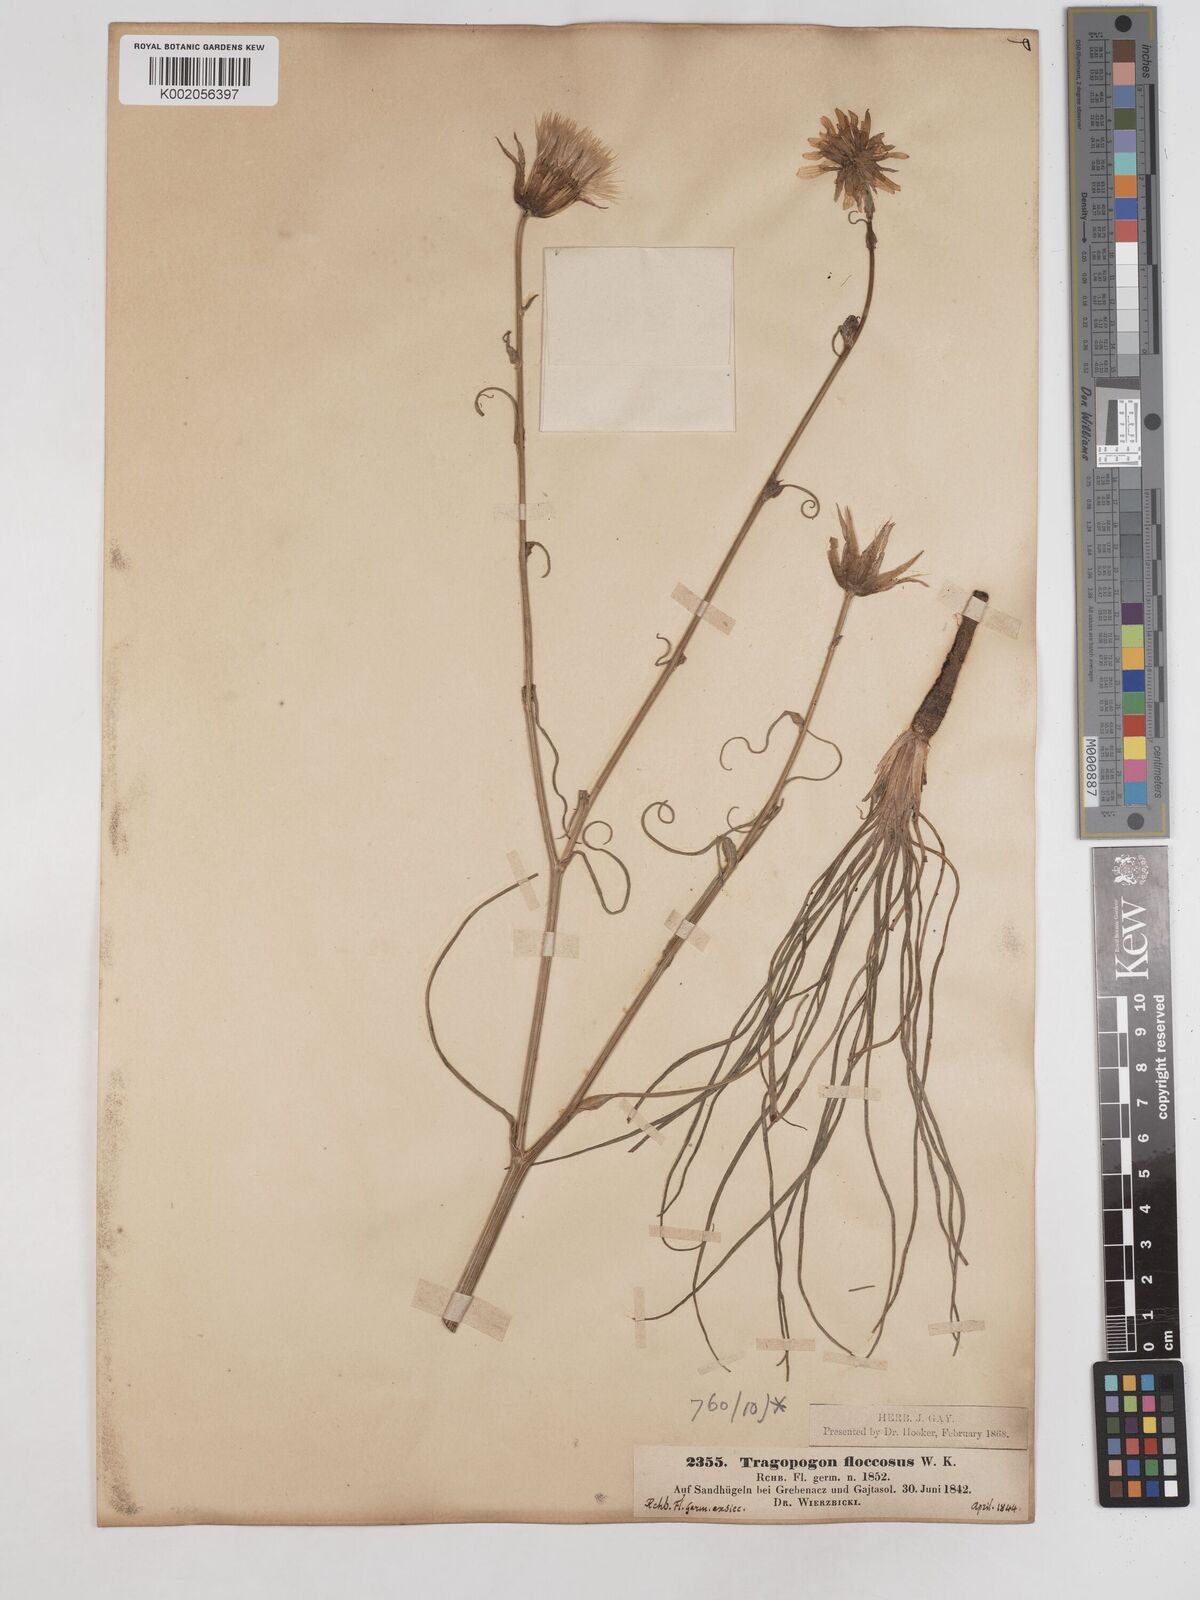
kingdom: Plantae
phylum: Tracheophyta
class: Magnoliopsida
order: Asterales
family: Asteraceae
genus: Tragopogon
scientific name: Tragopogon floccosus
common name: Woolly goatsbeard
